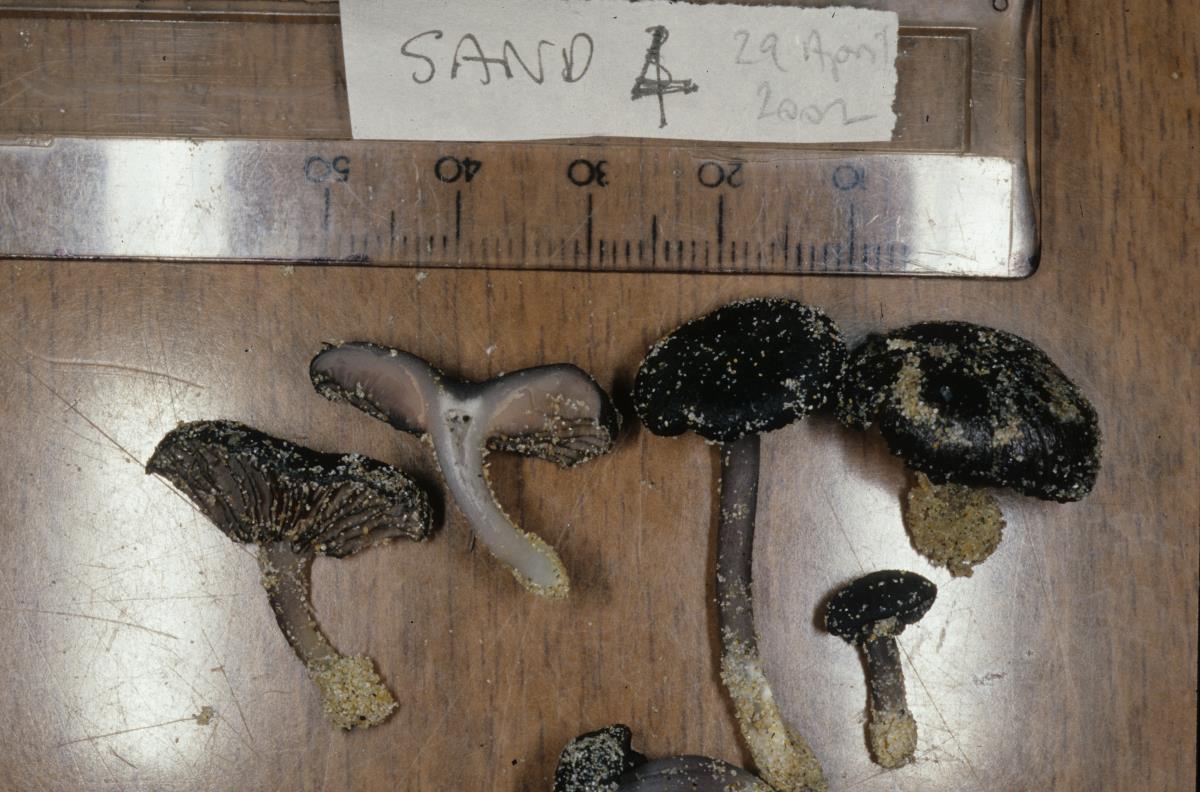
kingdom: Fungi
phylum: Basidiomycota
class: Agaricomycetes
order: Agaricales
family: Entolomataceae
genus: Entoloma
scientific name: Entoloma
